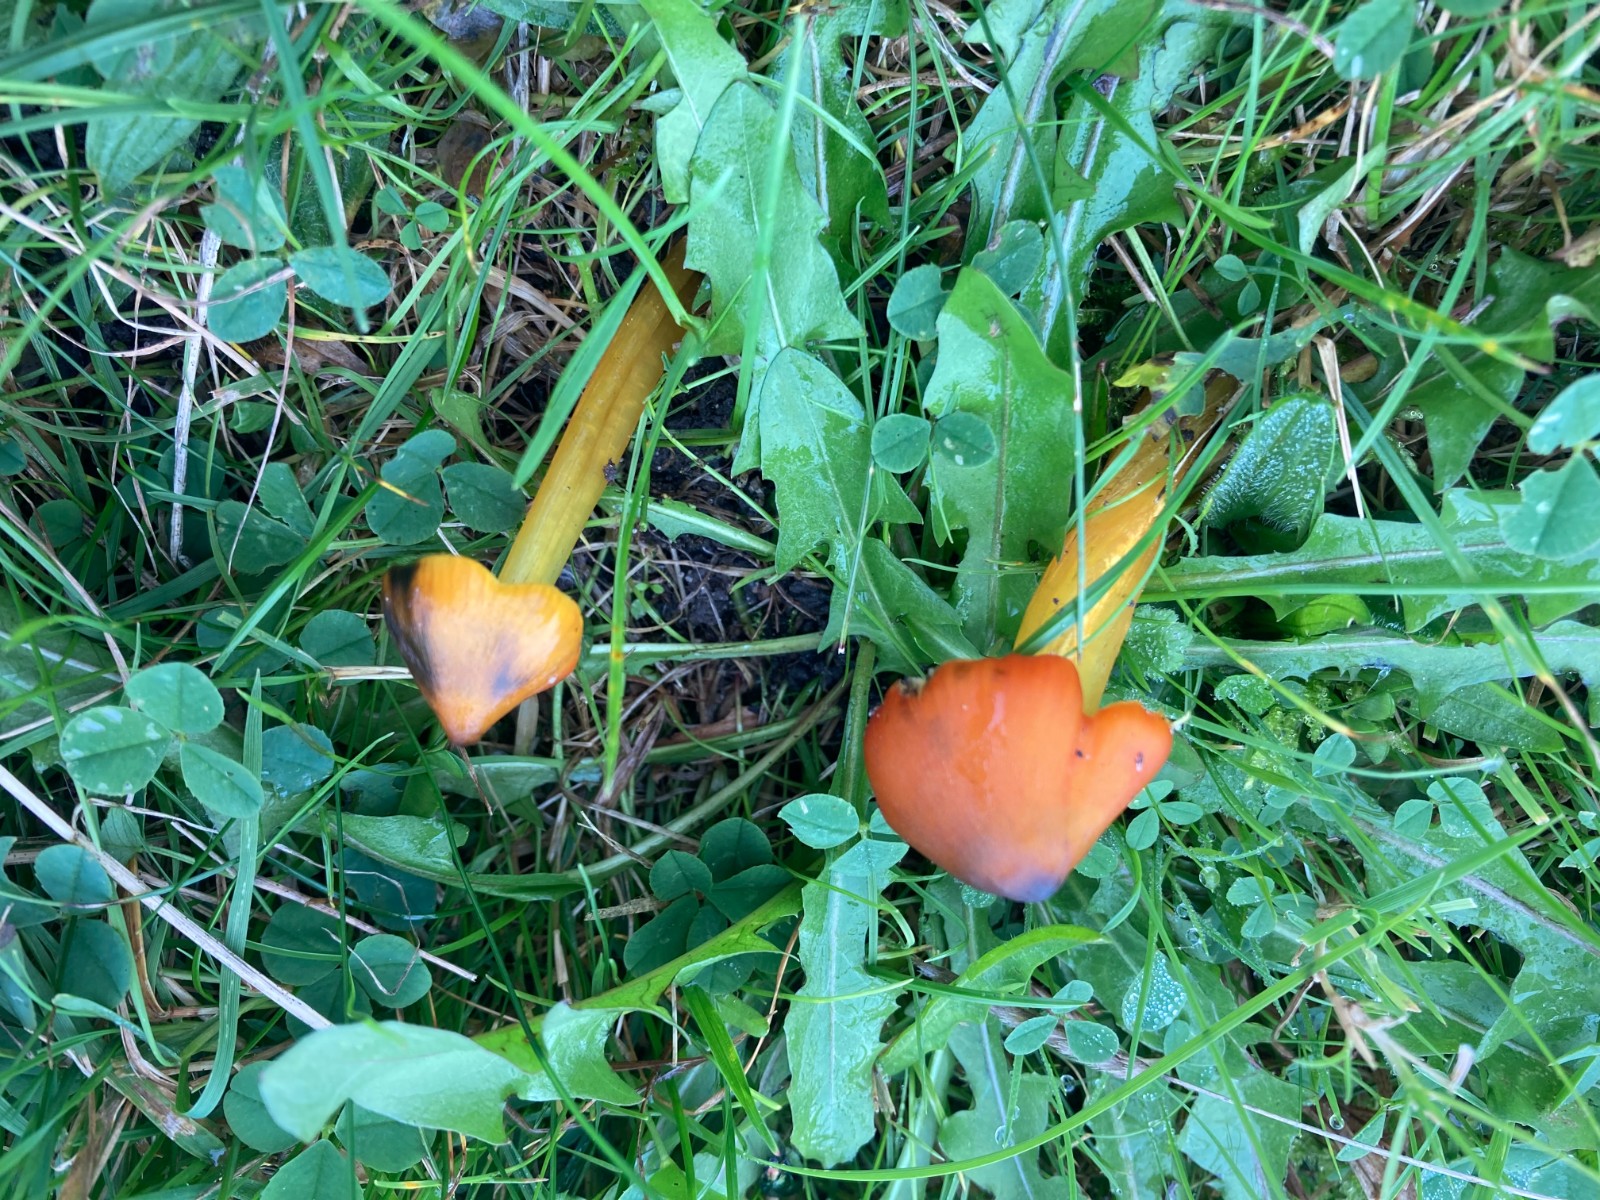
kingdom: Fungi
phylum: Basidiomycota
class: Agaricomycetes
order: Agaricales
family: Hygrophoraceae
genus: Hygrocybe
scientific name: Hygrocybe conica
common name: kegle-vokshat
